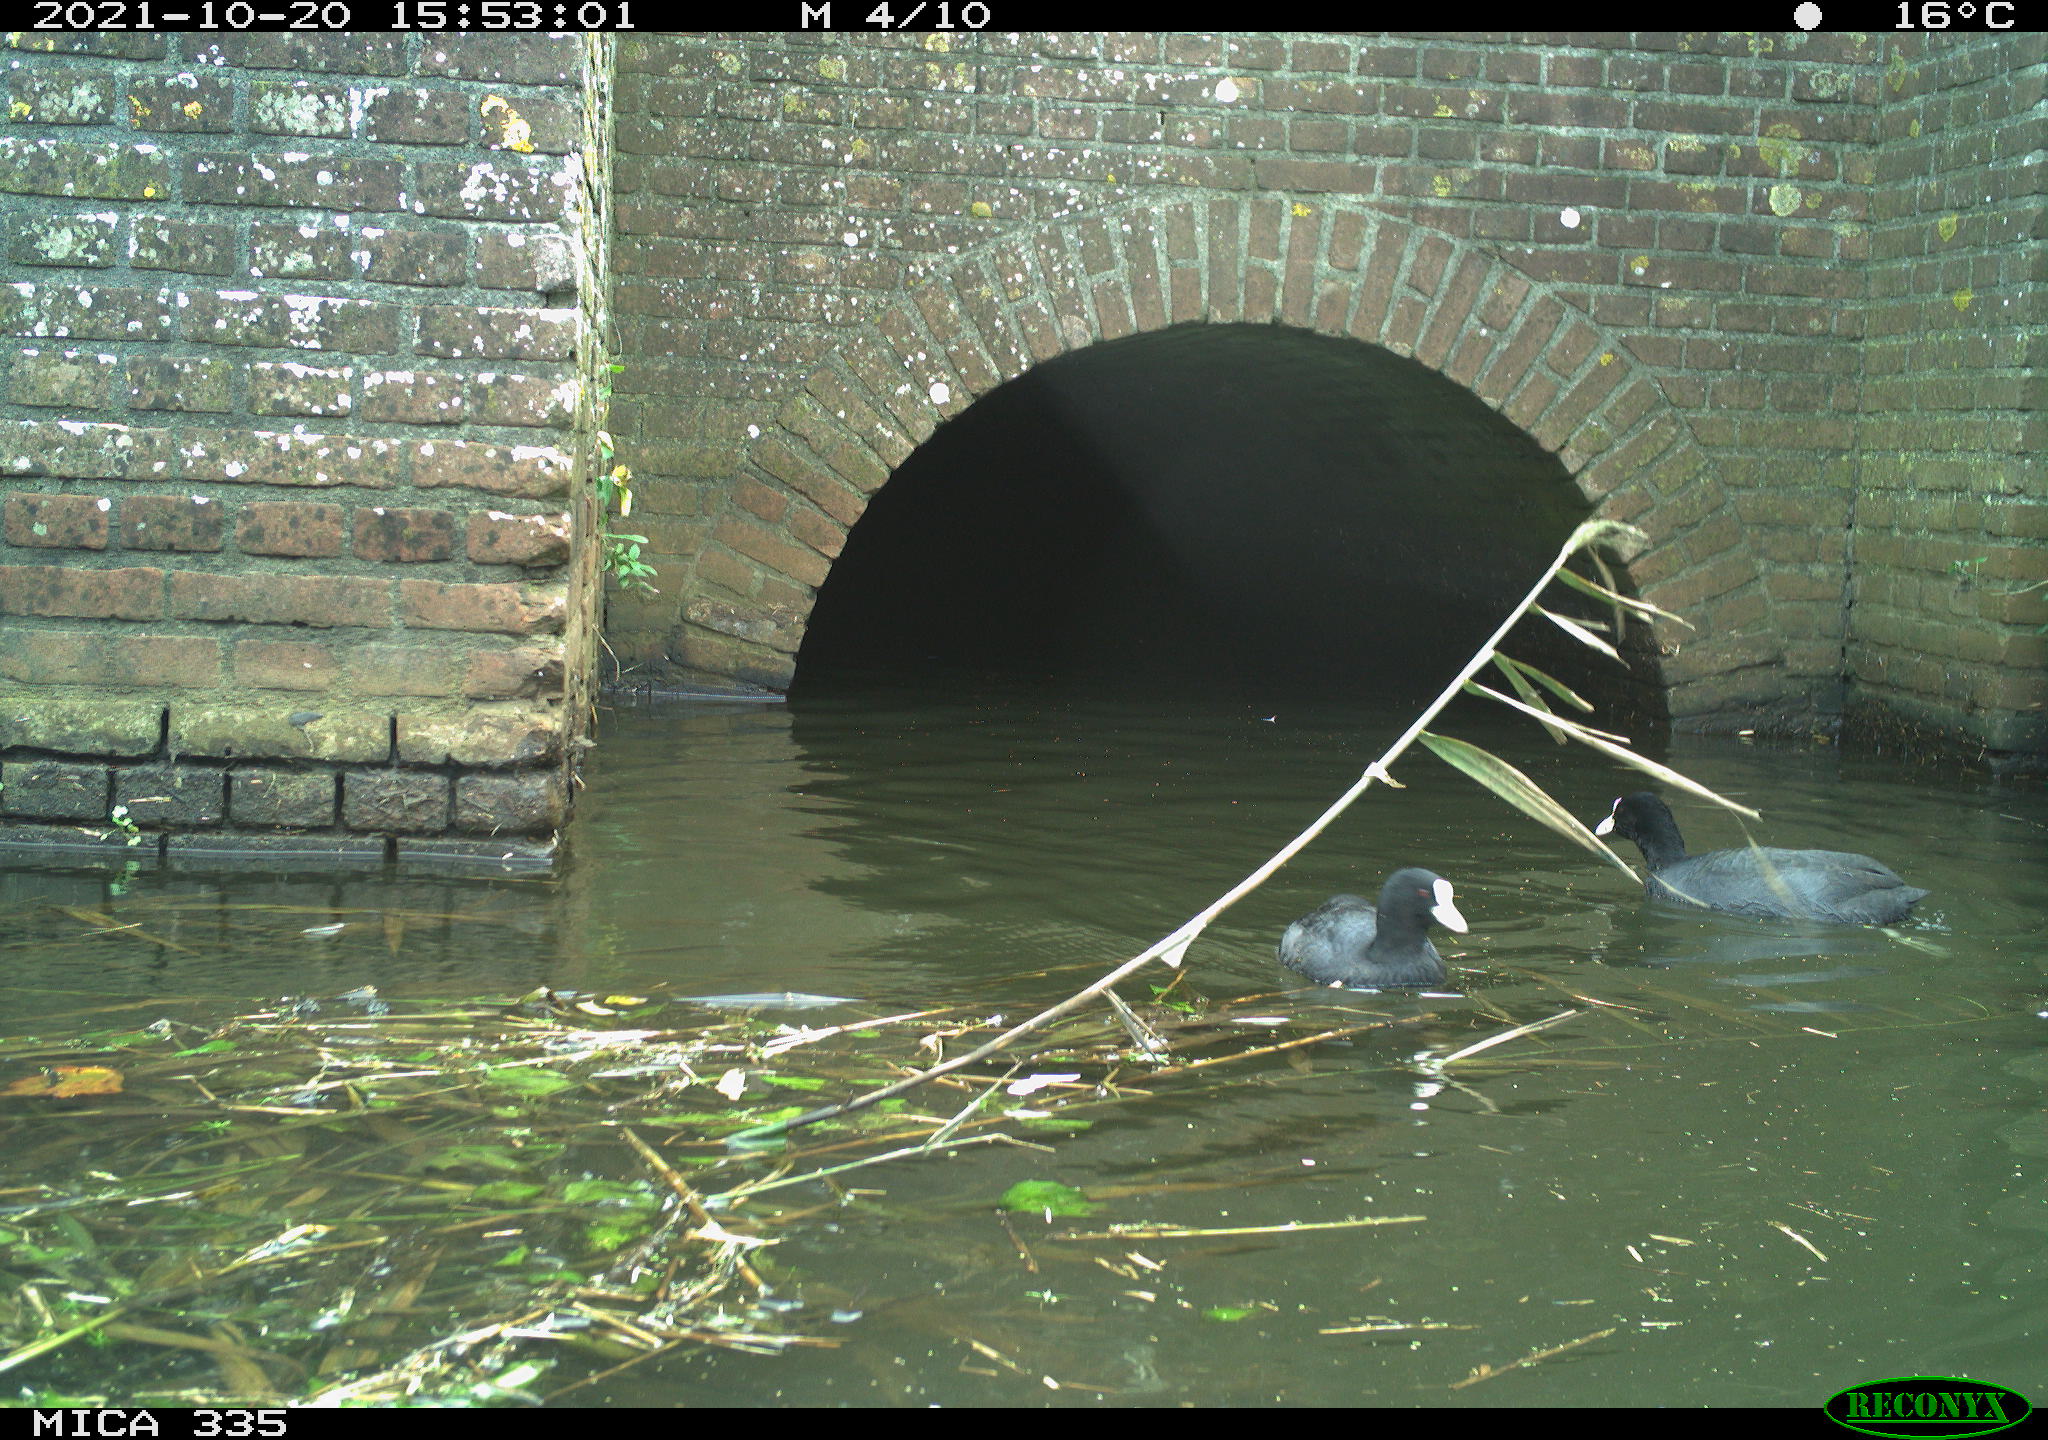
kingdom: Animalia
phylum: Chordata
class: Aves
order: Gruiformes
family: Rallidae
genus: Fulica
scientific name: Fulica atra
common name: Eurasian coot
